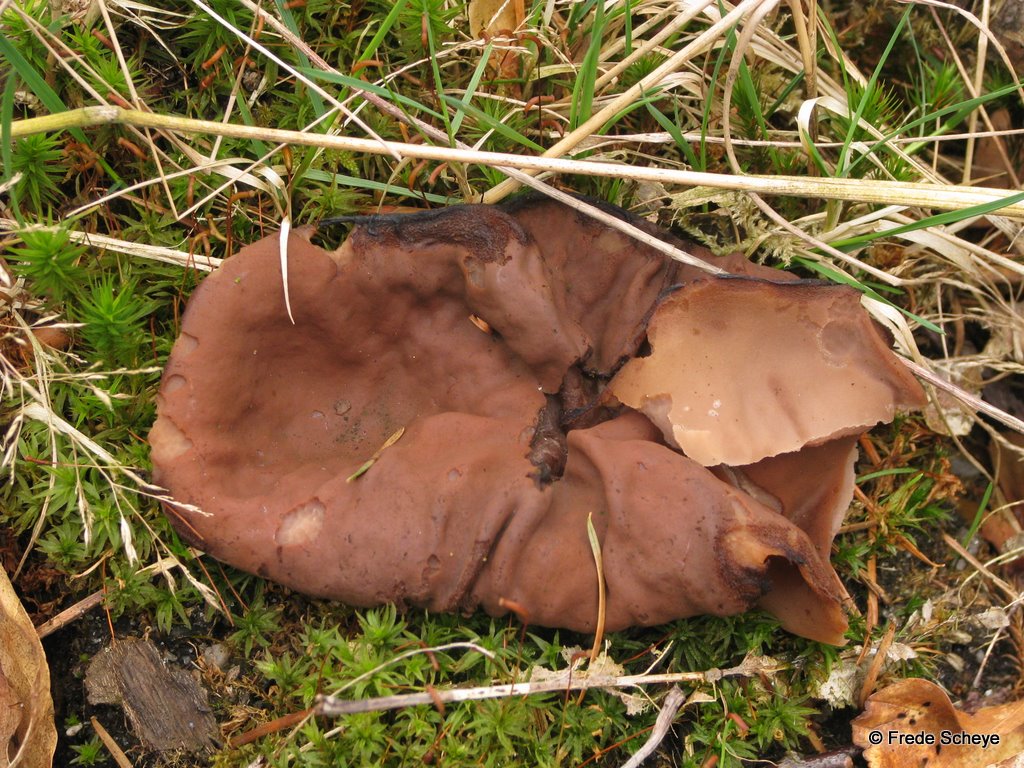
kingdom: Fungi
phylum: Ascomycota
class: Pezizomycetes
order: Pezizales
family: Discinaceae
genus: Discina
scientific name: Discina ancilis
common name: udbredt stenmorkel
